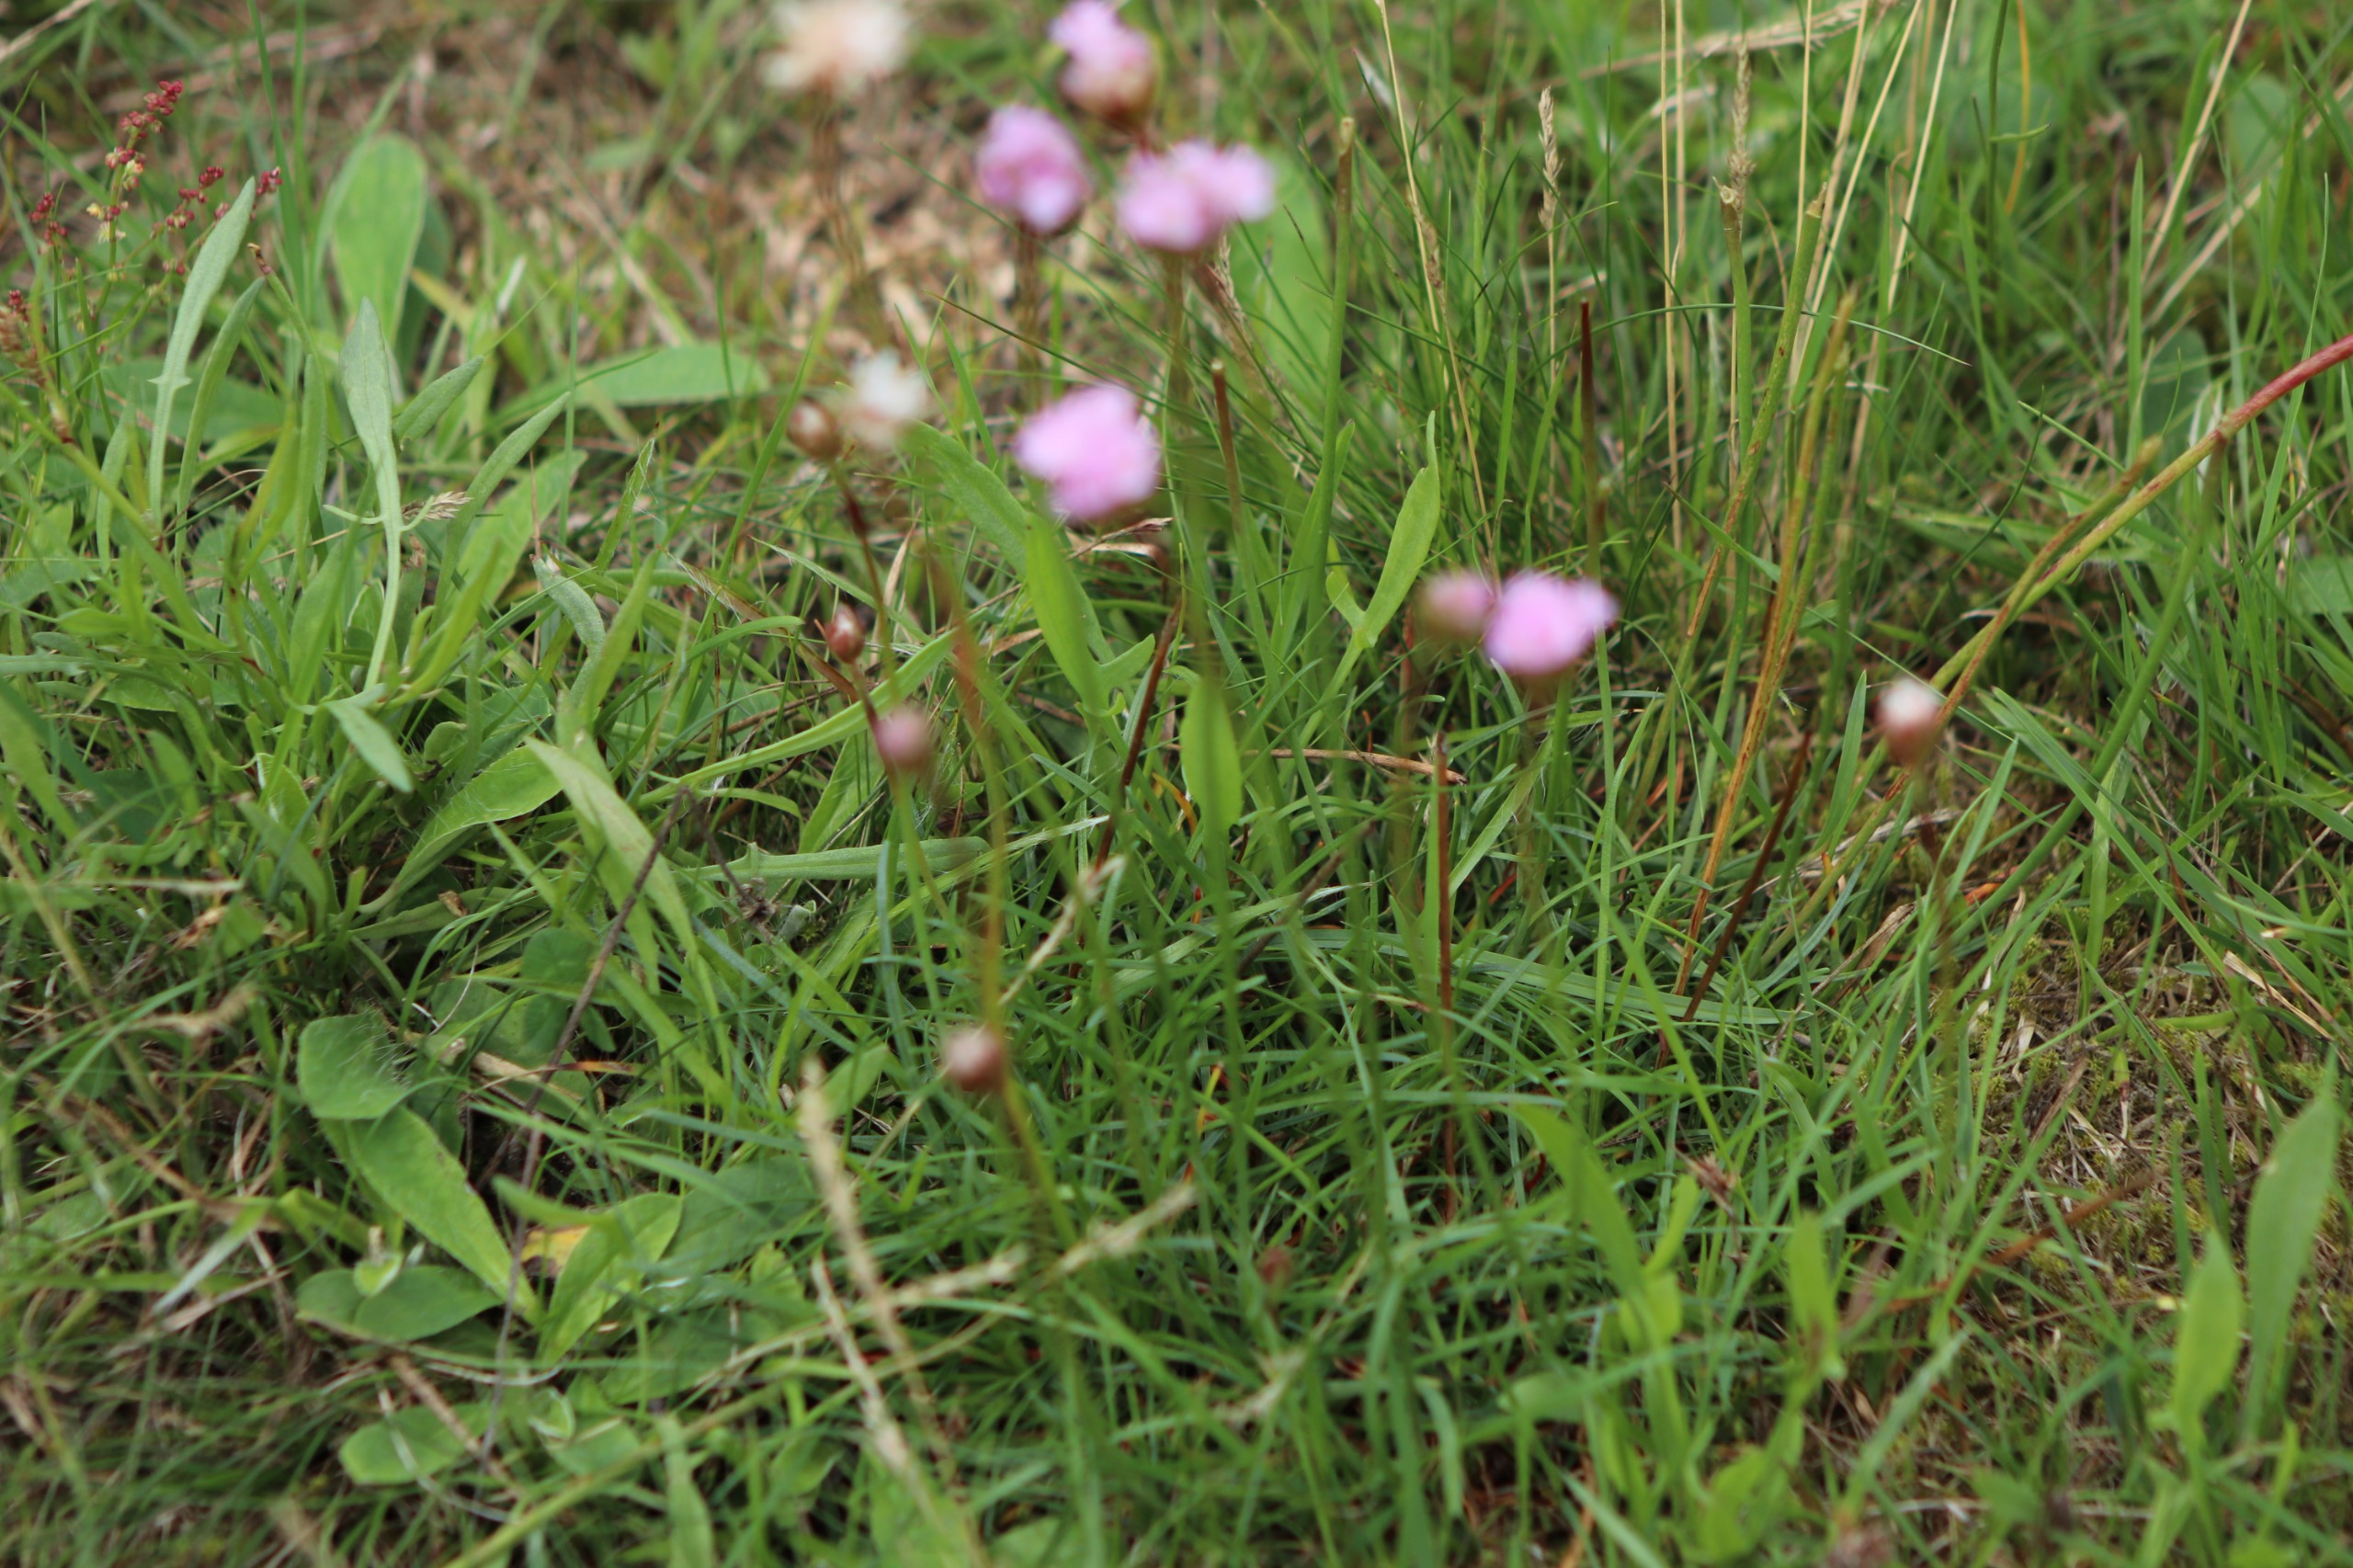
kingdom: Plantae
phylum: Tracheophyta
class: Magnoliopsida
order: Caryophyllales
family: Plumbaginaceae
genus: Armeria
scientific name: Armeria maritima
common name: Engelskgræs
